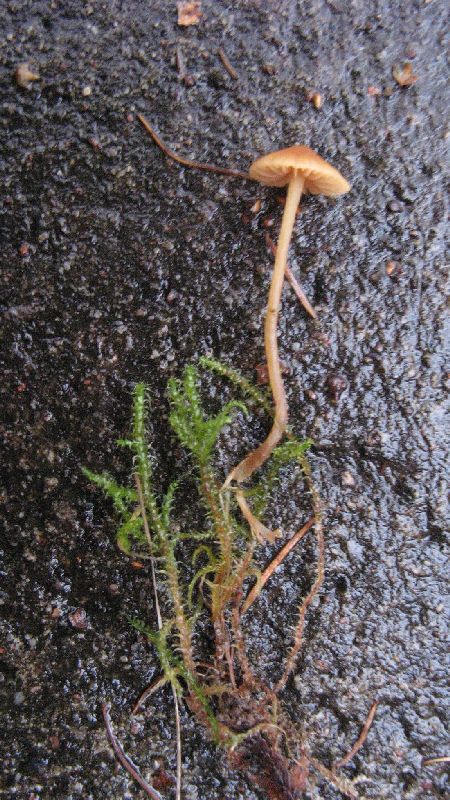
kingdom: Fungi
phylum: Basidiomycota
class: Agaricomycetes
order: Agaricales
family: Hymenogastraceae
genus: Galerina
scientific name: Galerina clavata
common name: kær-hjelmhat
